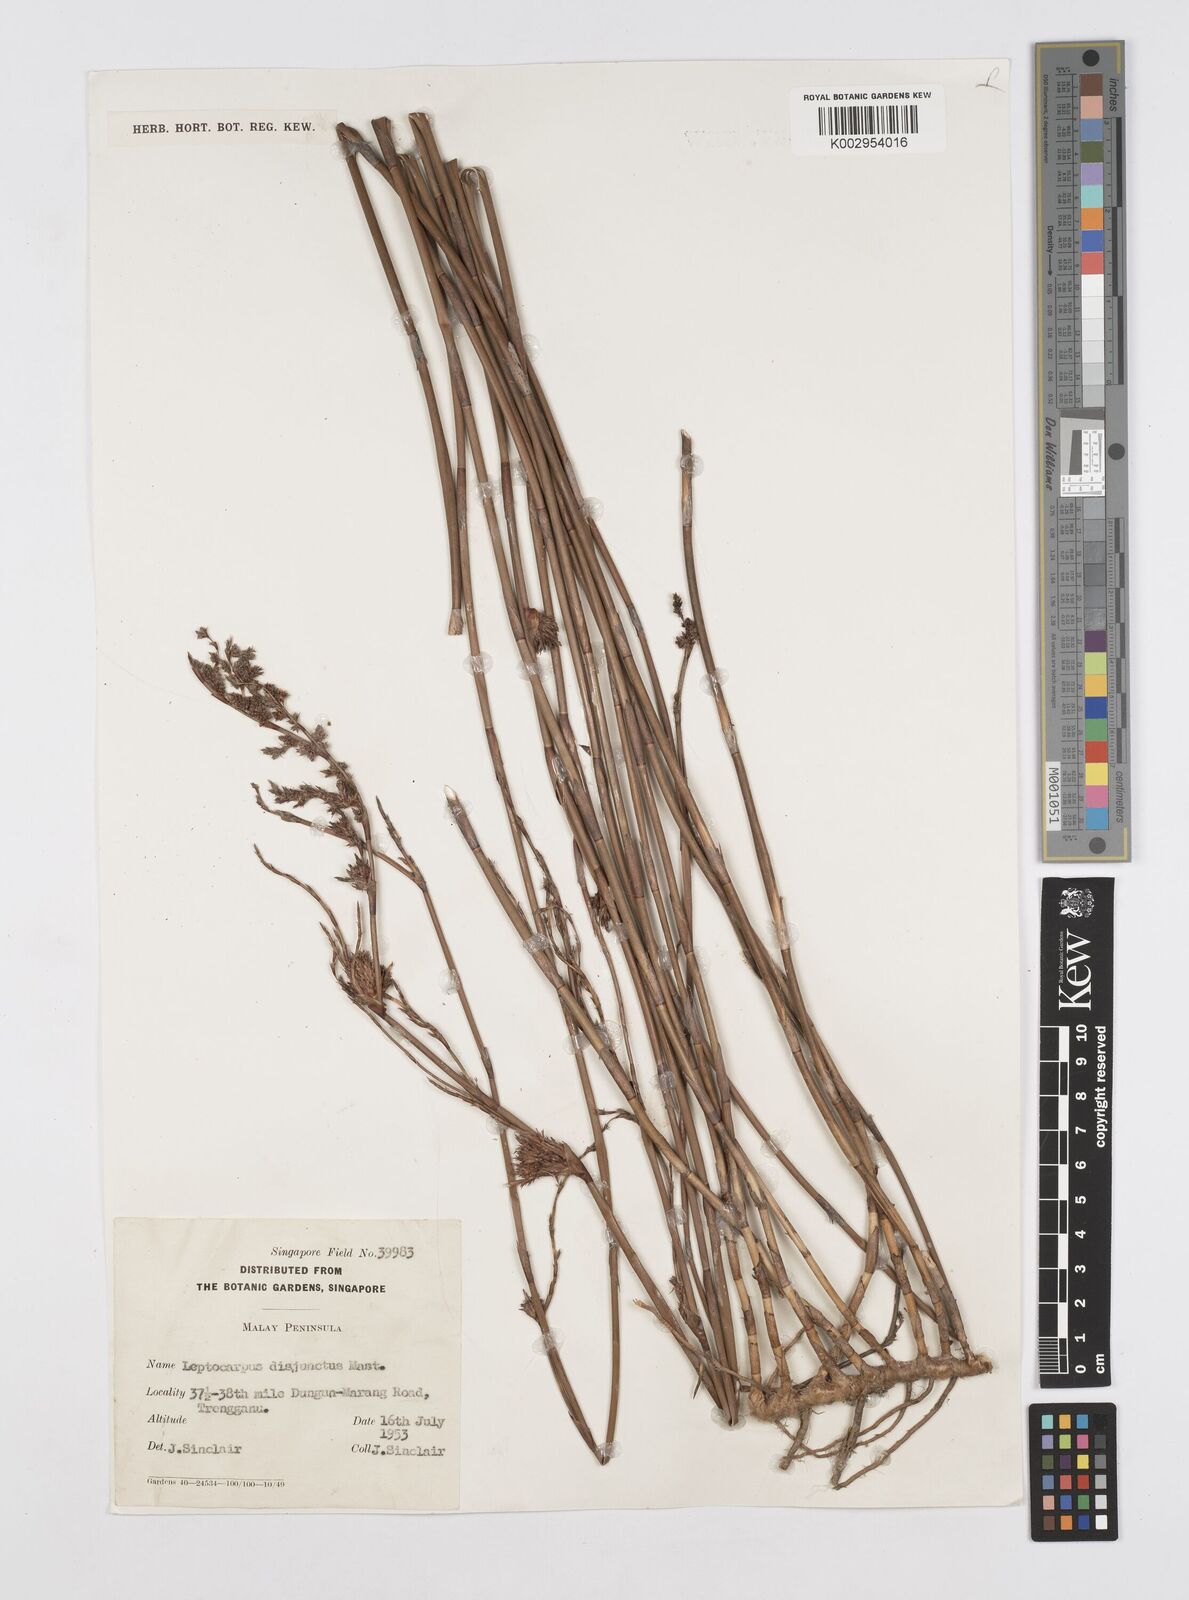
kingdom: Plantae
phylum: Tracheophyta
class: Liliopsida
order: Poales
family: Restionaceae
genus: Dapsilanthus
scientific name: Dapsilanthus disjunctus
